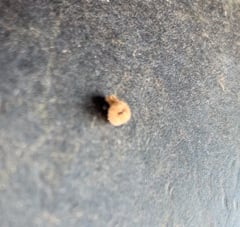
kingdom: Animalia
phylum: Arthropoda
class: Insecta
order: Lepidoptera
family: Psychidae
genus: Apterona
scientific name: Apterona helicoidella
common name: Moth
